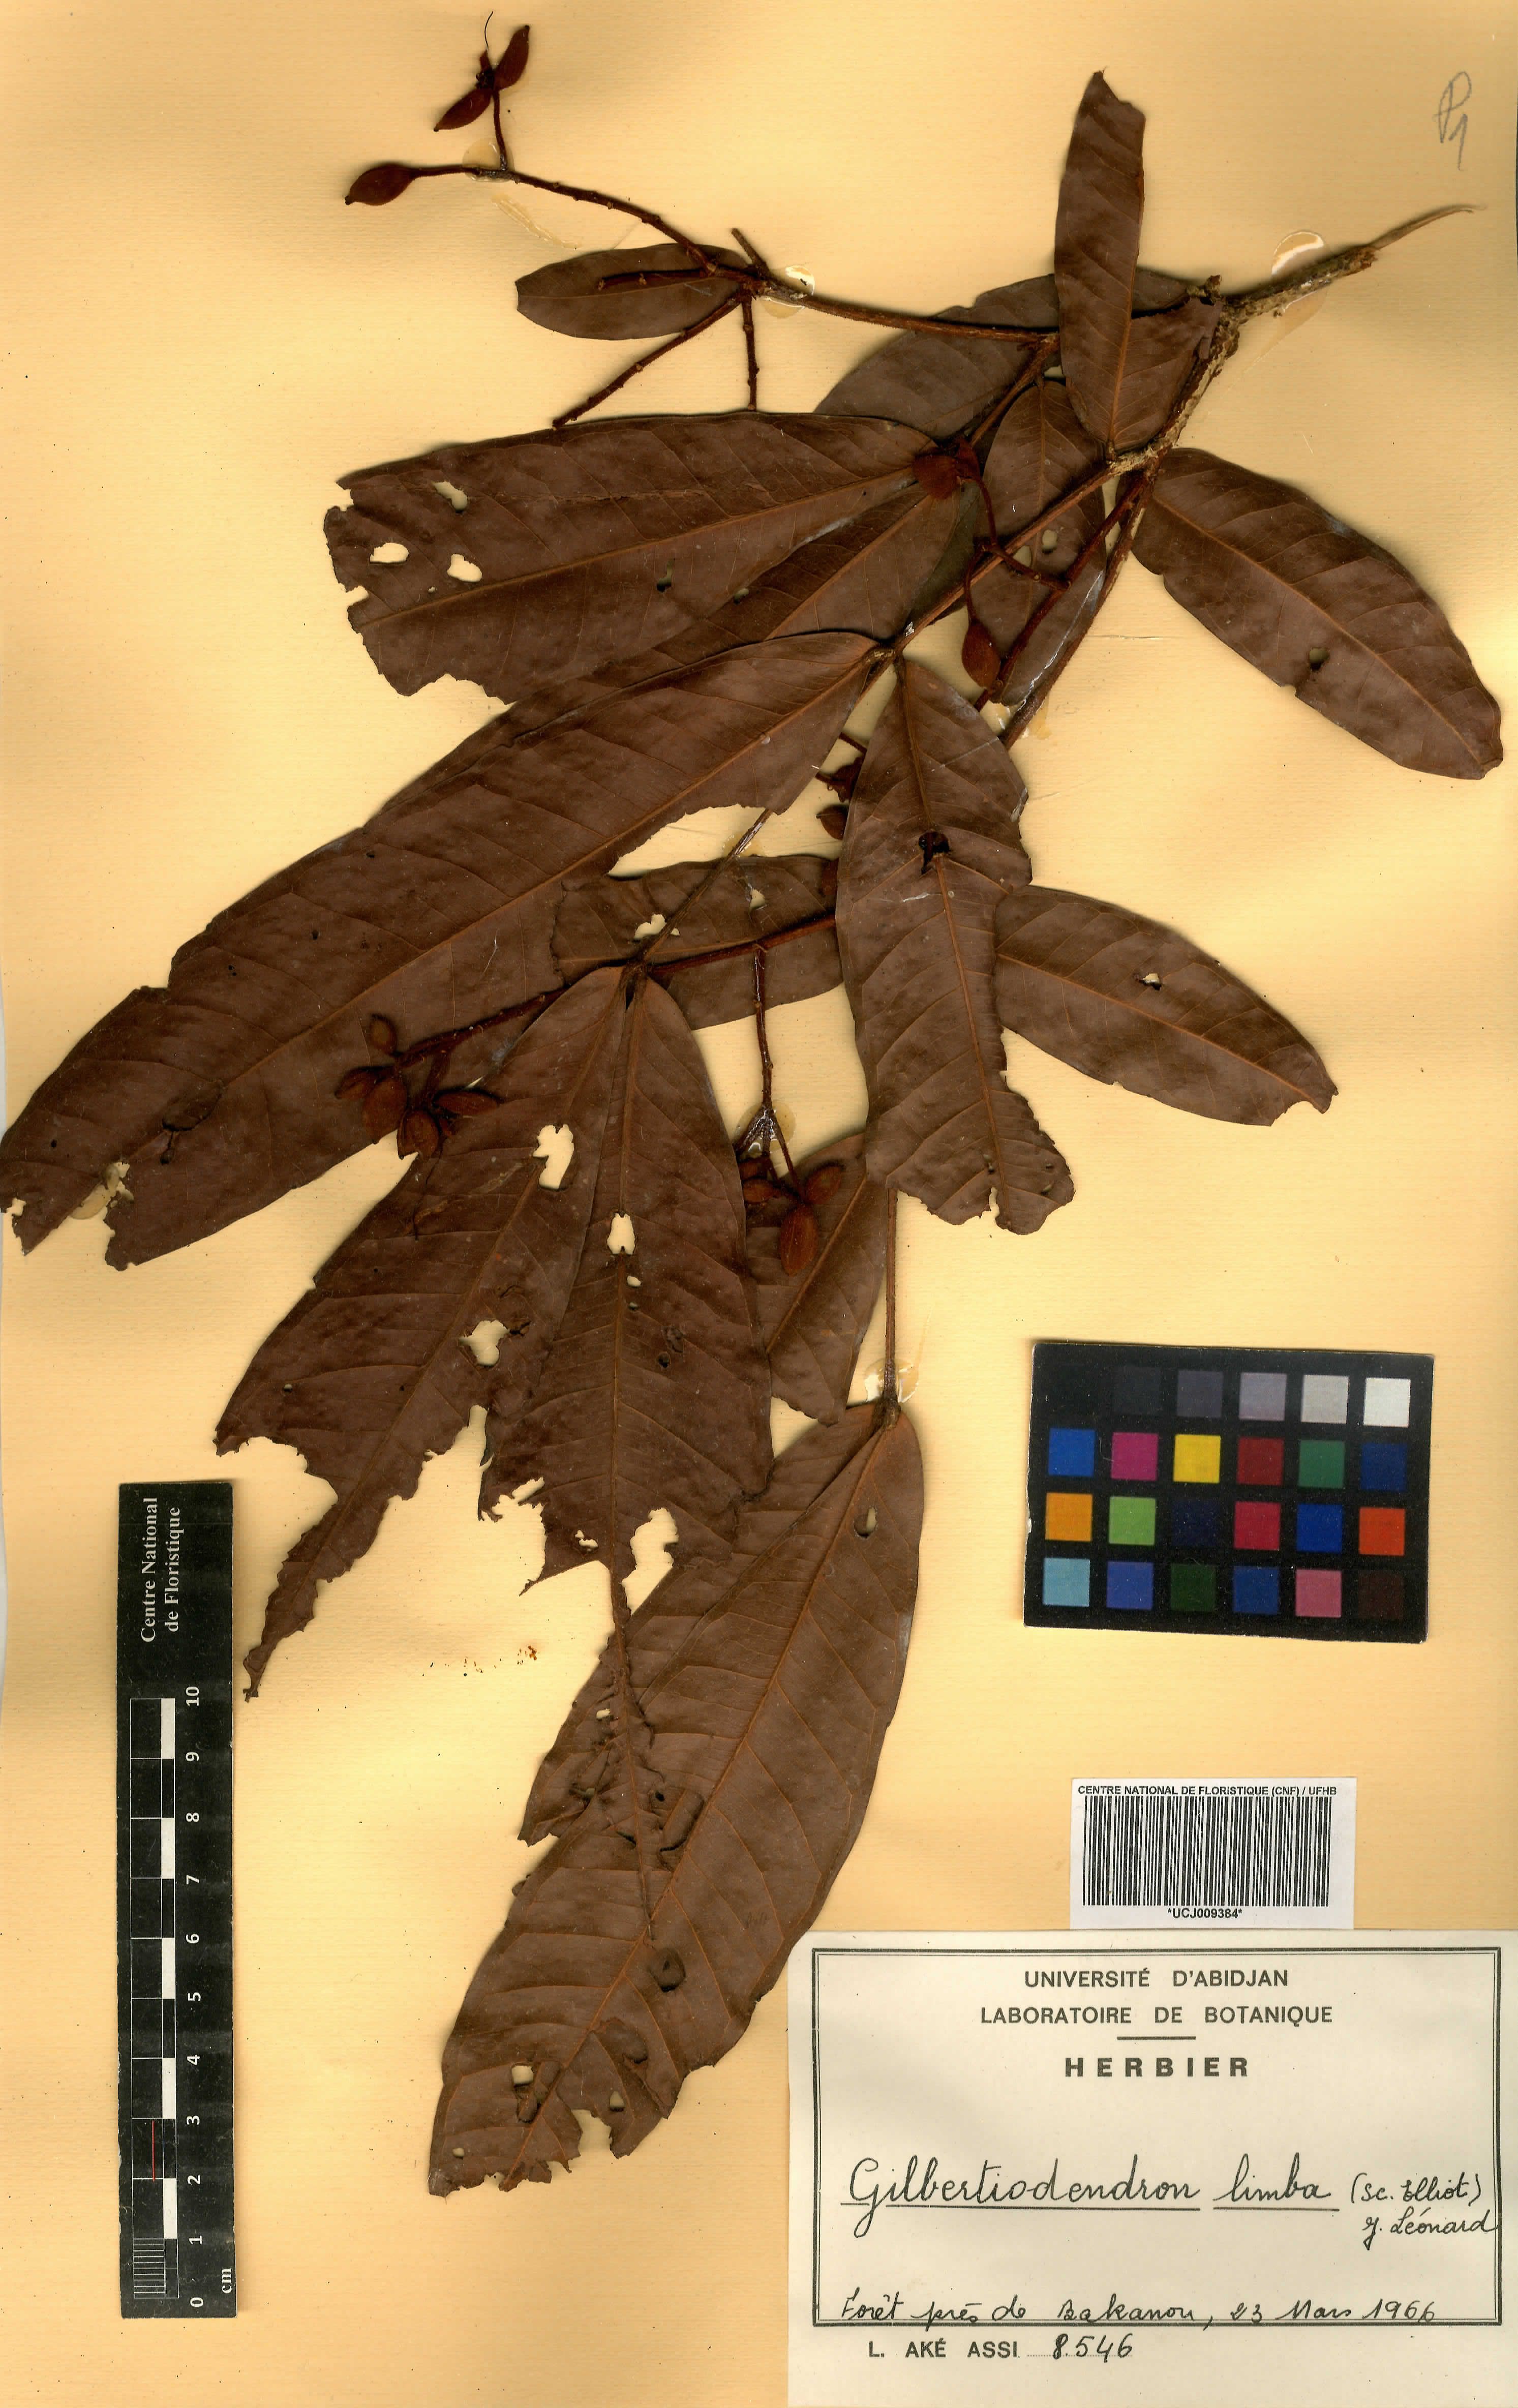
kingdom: Plantae
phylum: Tracheophyta
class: Magnoliopsida
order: Fabales
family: Fabaceae
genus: Gilbertiodendron
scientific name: Gilbertiodendron limba
